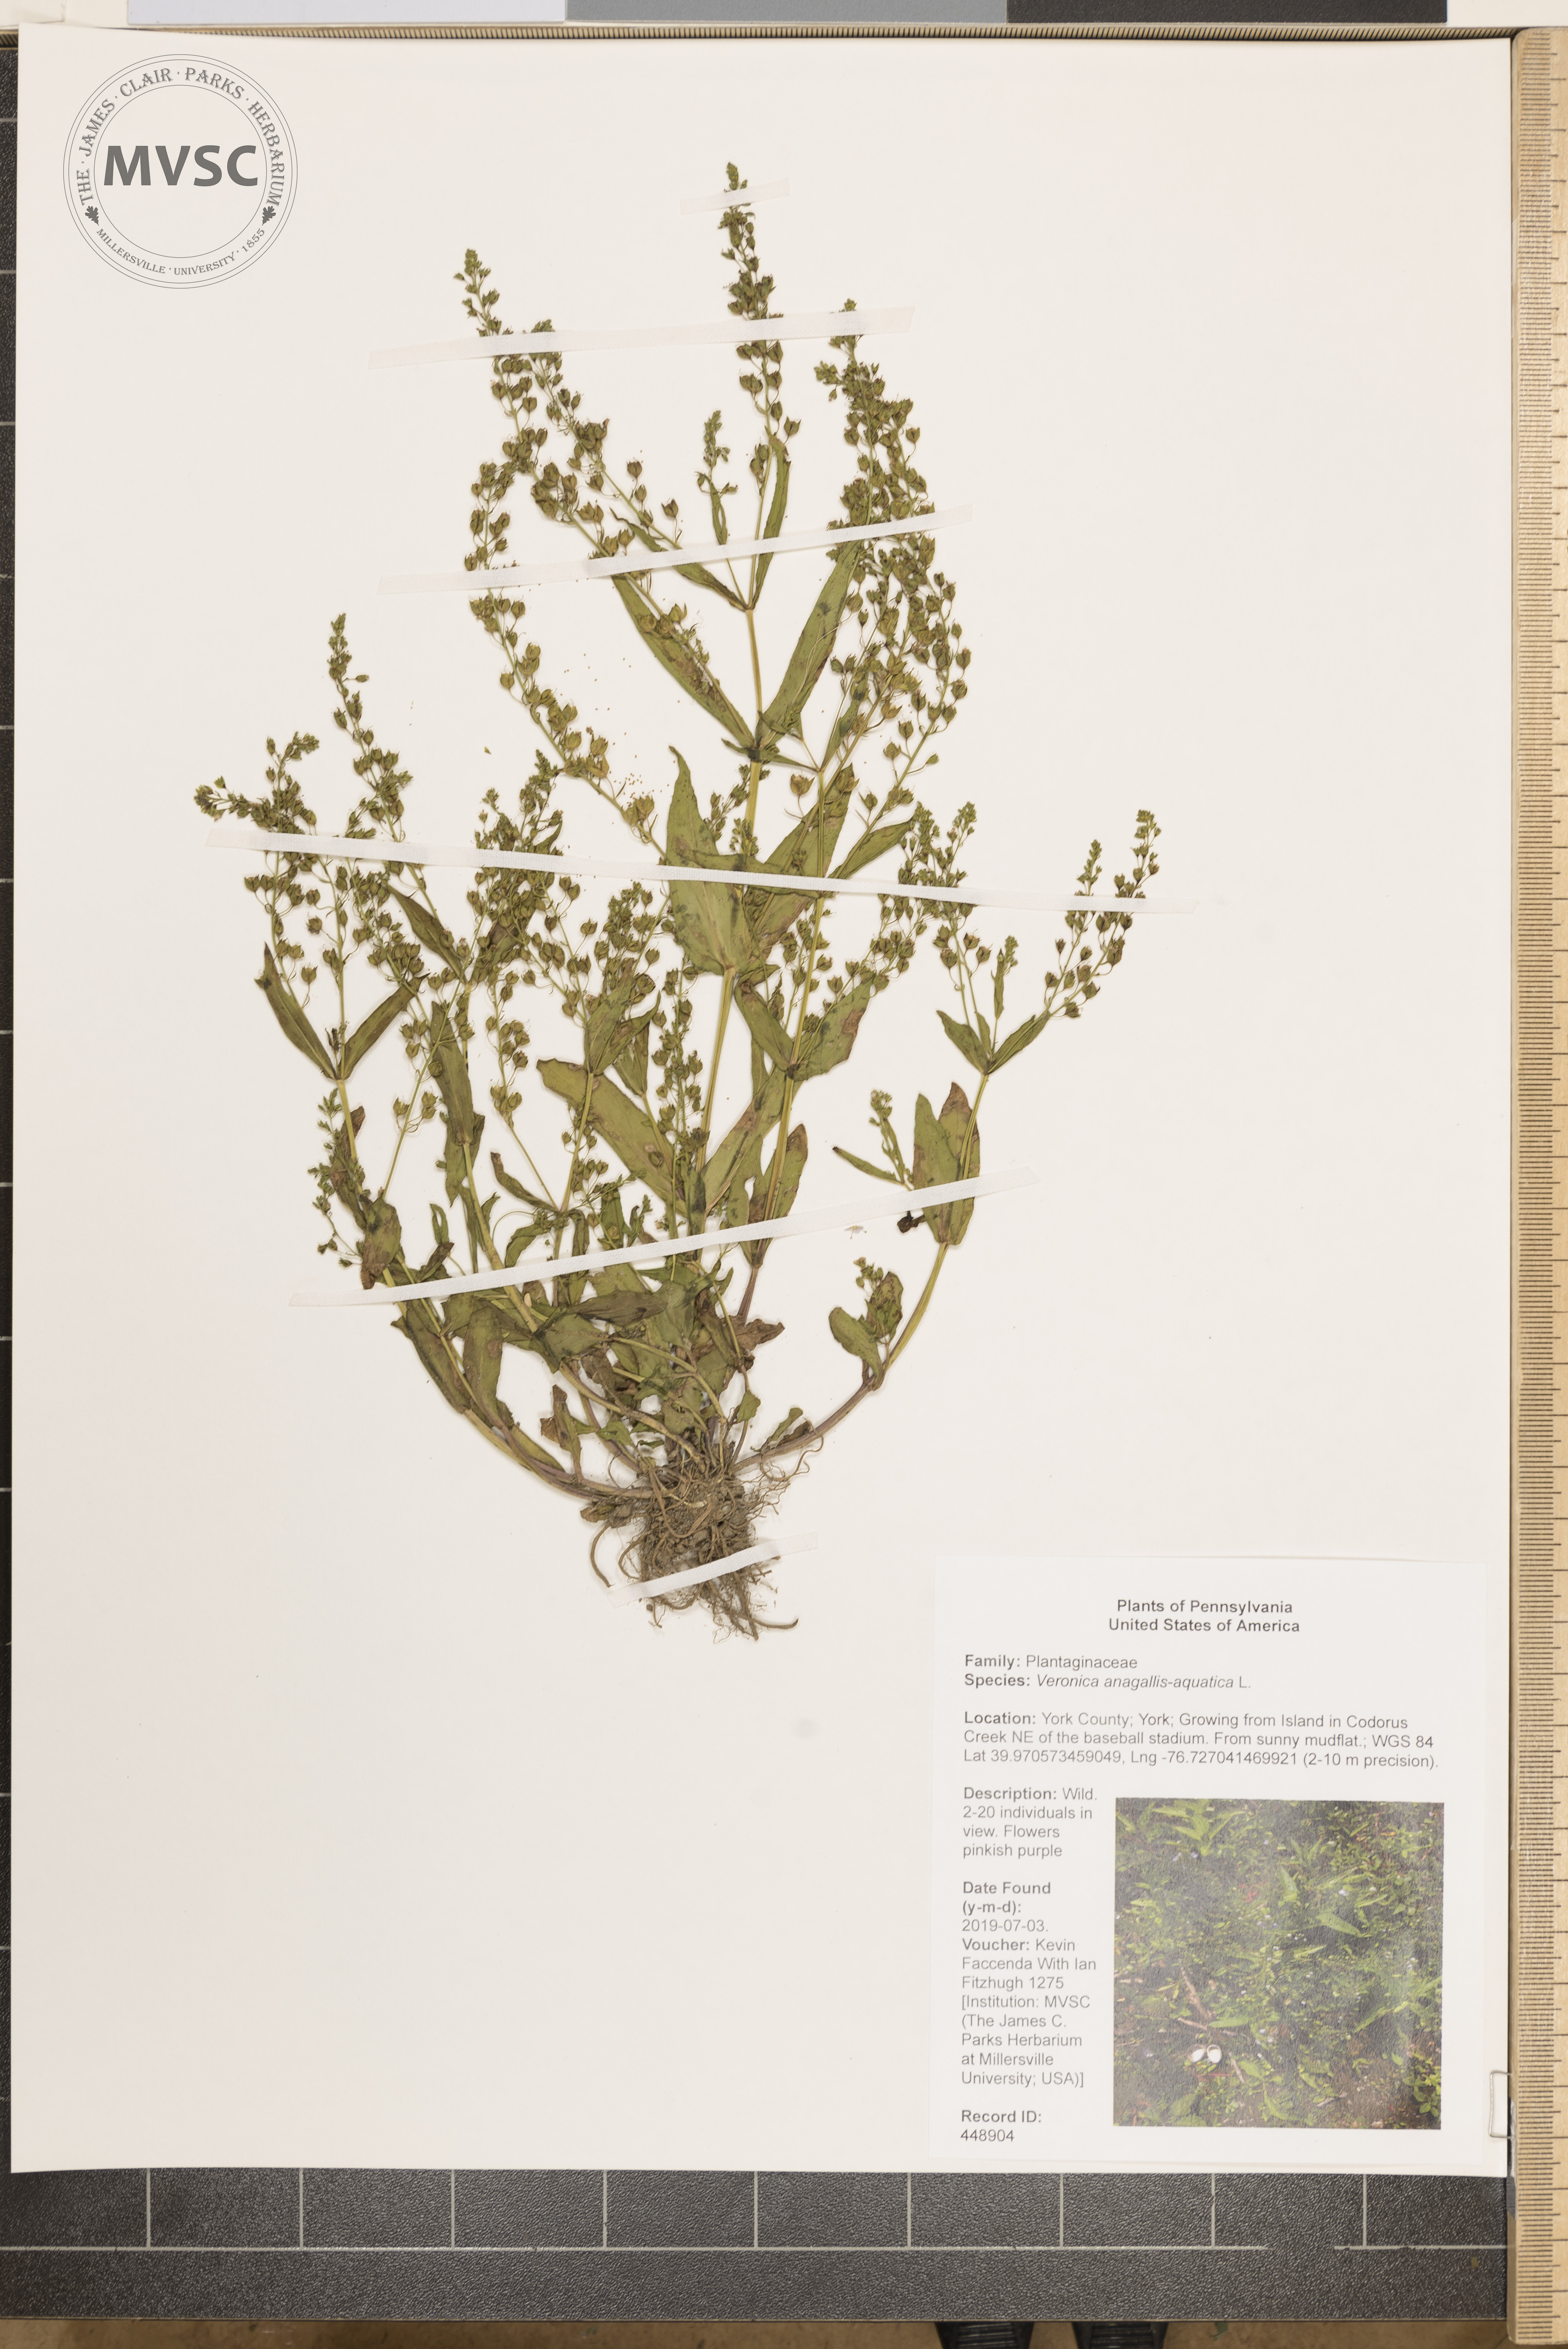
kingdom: Plantae
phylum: Tracheophyta
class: Magnoliopsida
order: Lamiales
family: Plantaginaceae
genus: Veronica
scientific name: Veronica anagallis-aquatica
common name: Water speedwell
